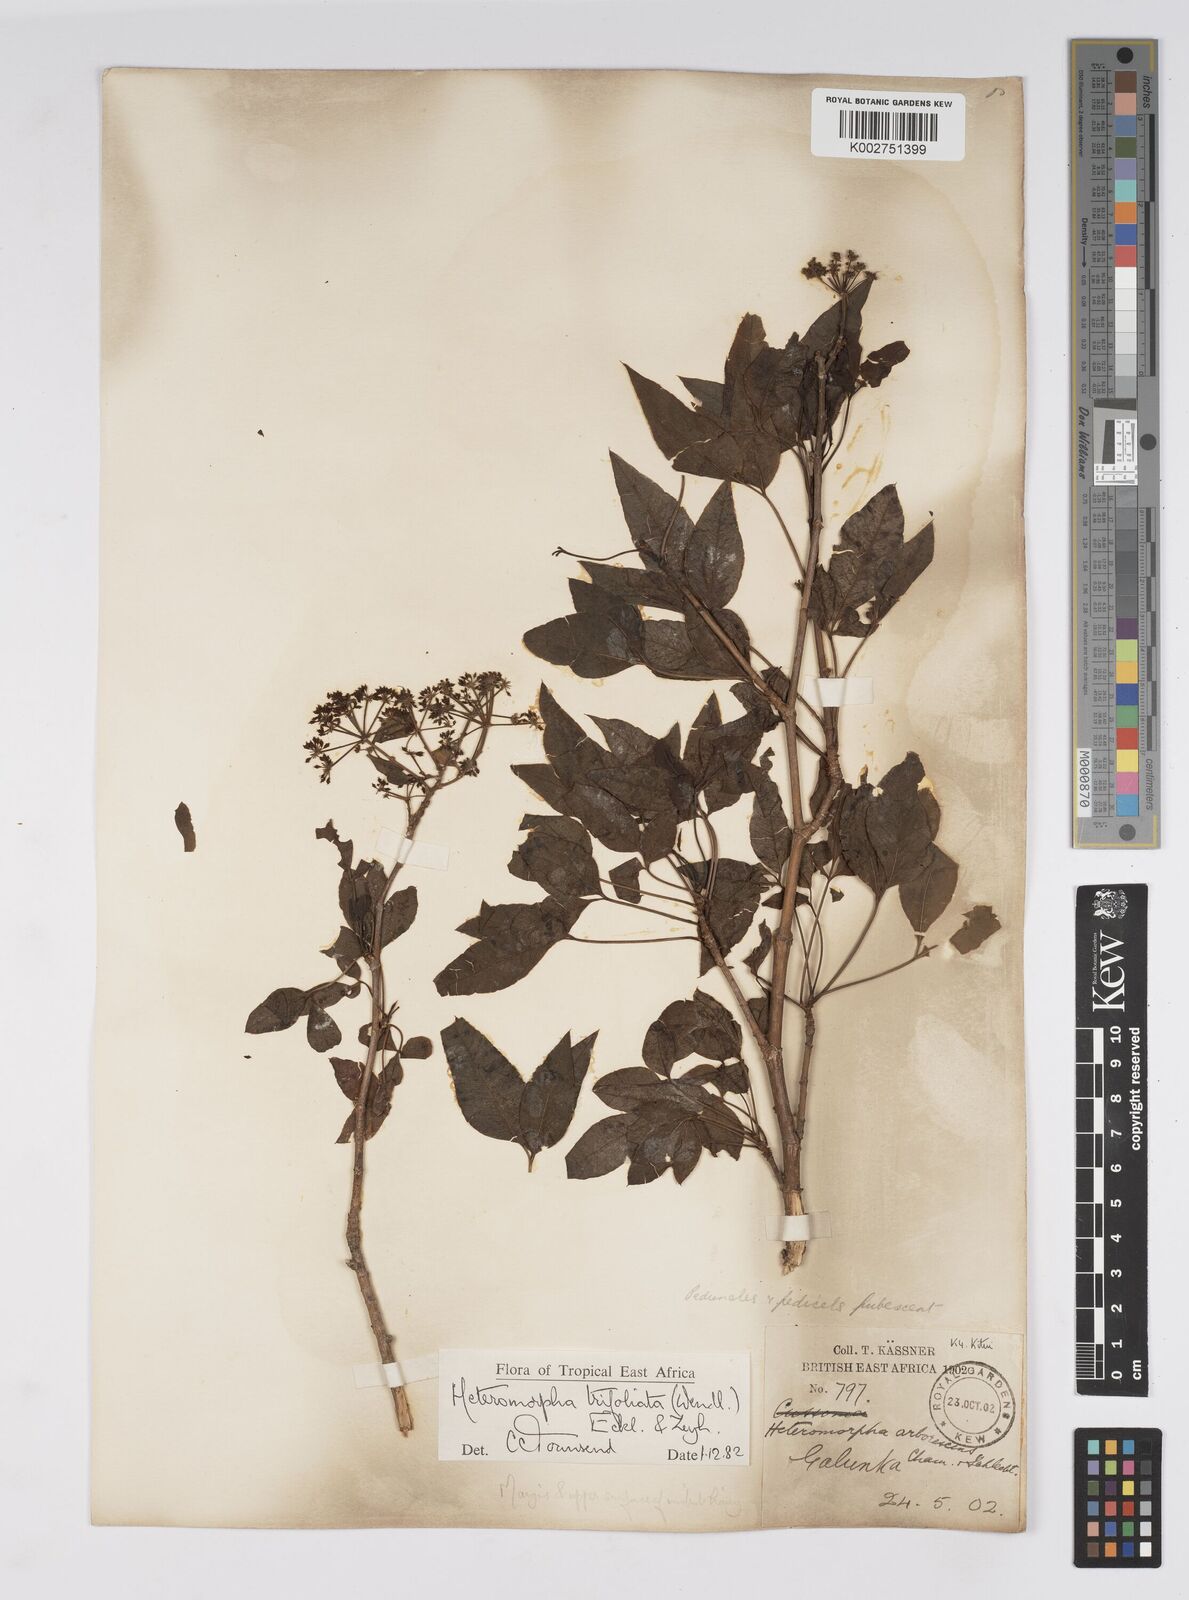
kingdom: Plantae
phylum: Tracheophyta
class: Magnoliopsida
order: Apiales
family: Apiaceae
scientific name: Apiaceae
